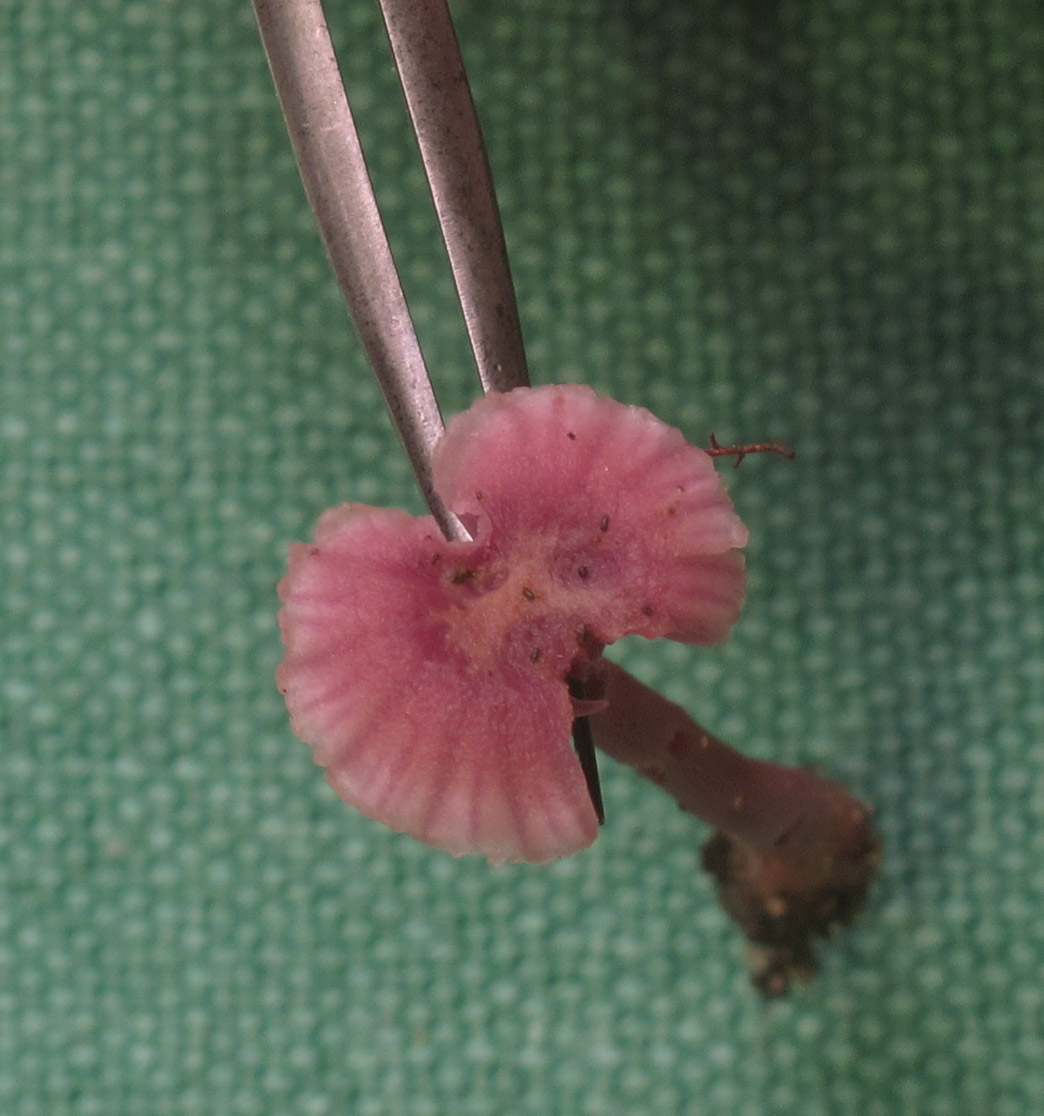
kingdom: Fungi
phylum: Basidiomycota
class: Agaricomycetes
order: Agaricales
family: Hydnangiaceae
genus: Laccaria
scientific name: Laccaria amethystina
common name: violet ametysthat
